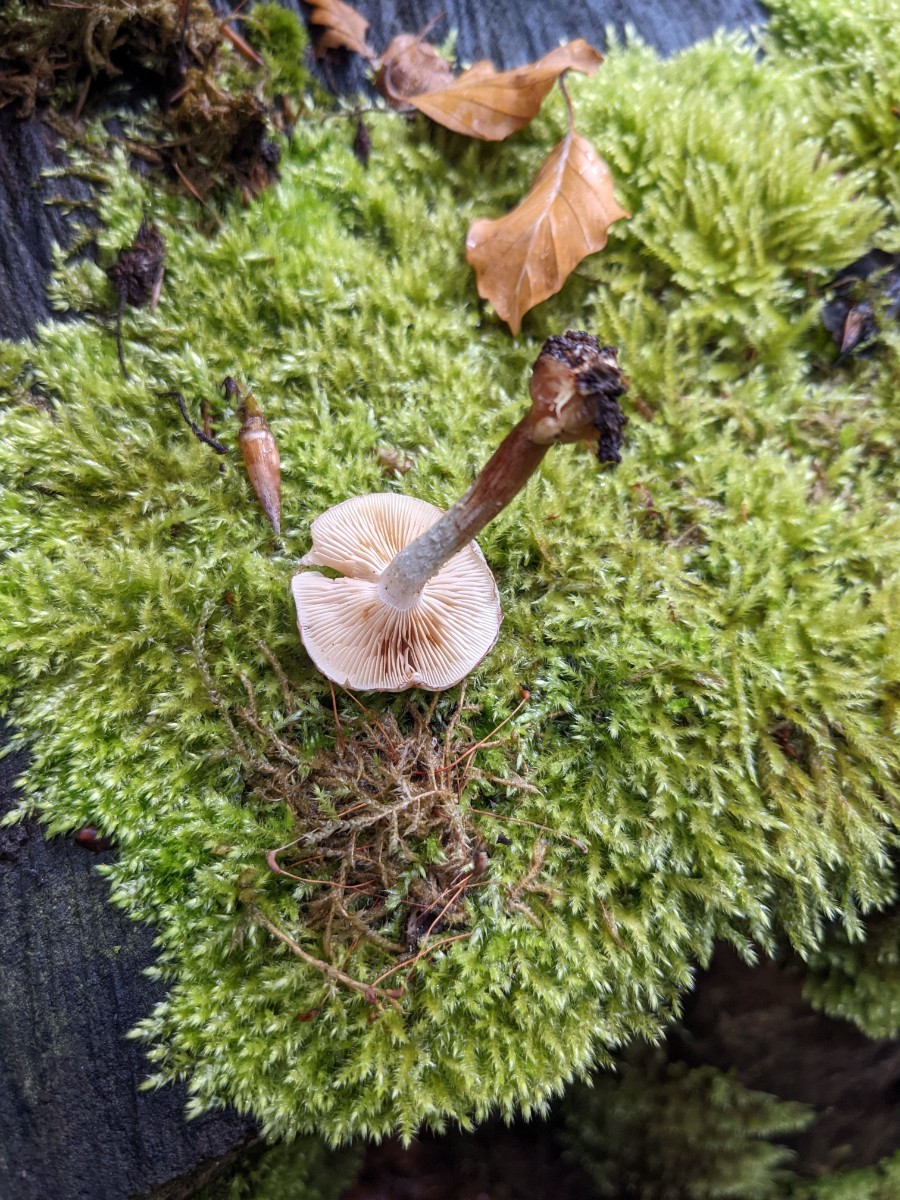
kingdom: Fungi
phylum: Basidiomycota
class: Agaricomycetes
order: Agaricales
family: Strophariaceae
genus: Pholiota
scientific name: Pholiota gummosa
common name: grøngul skælhat
